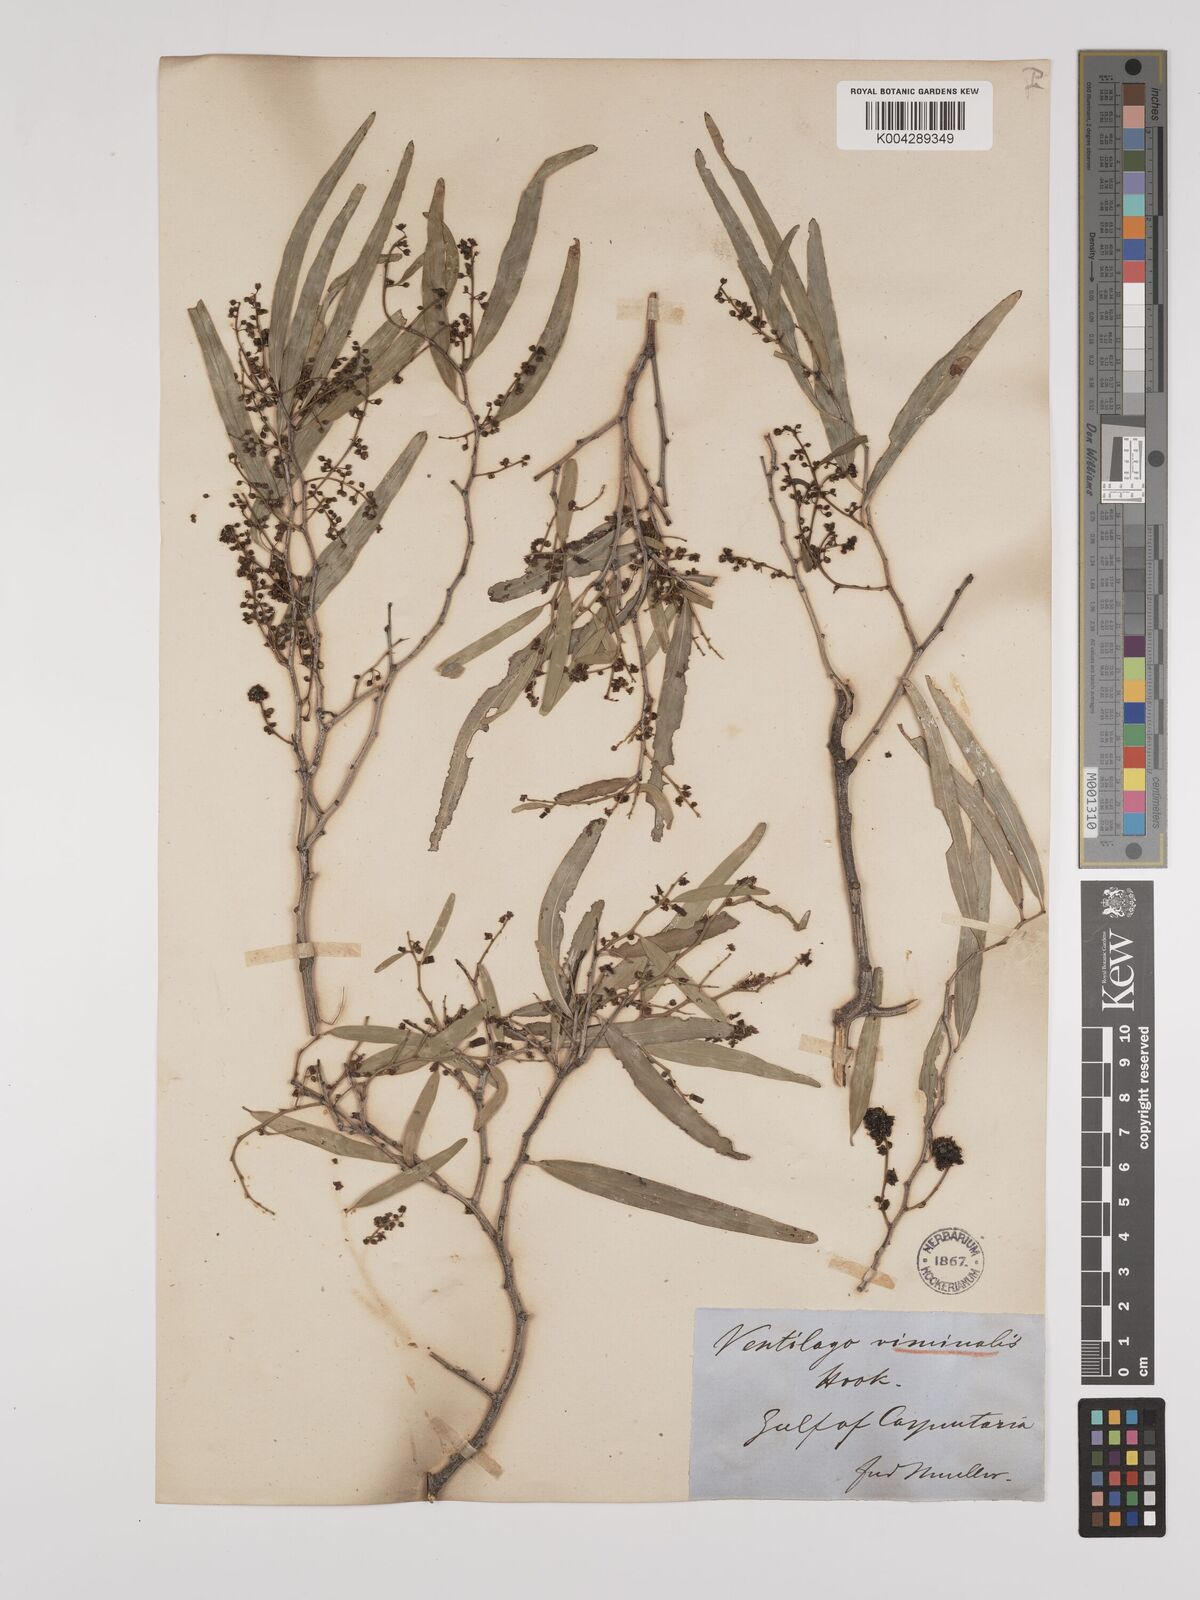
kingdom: Plantae
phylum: Tracheophyta
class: Magnoliopsida
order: Rosales
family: Rhamnaceae
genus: Ventilago
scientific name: Ventilago viminalis
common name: Medicine-bark
